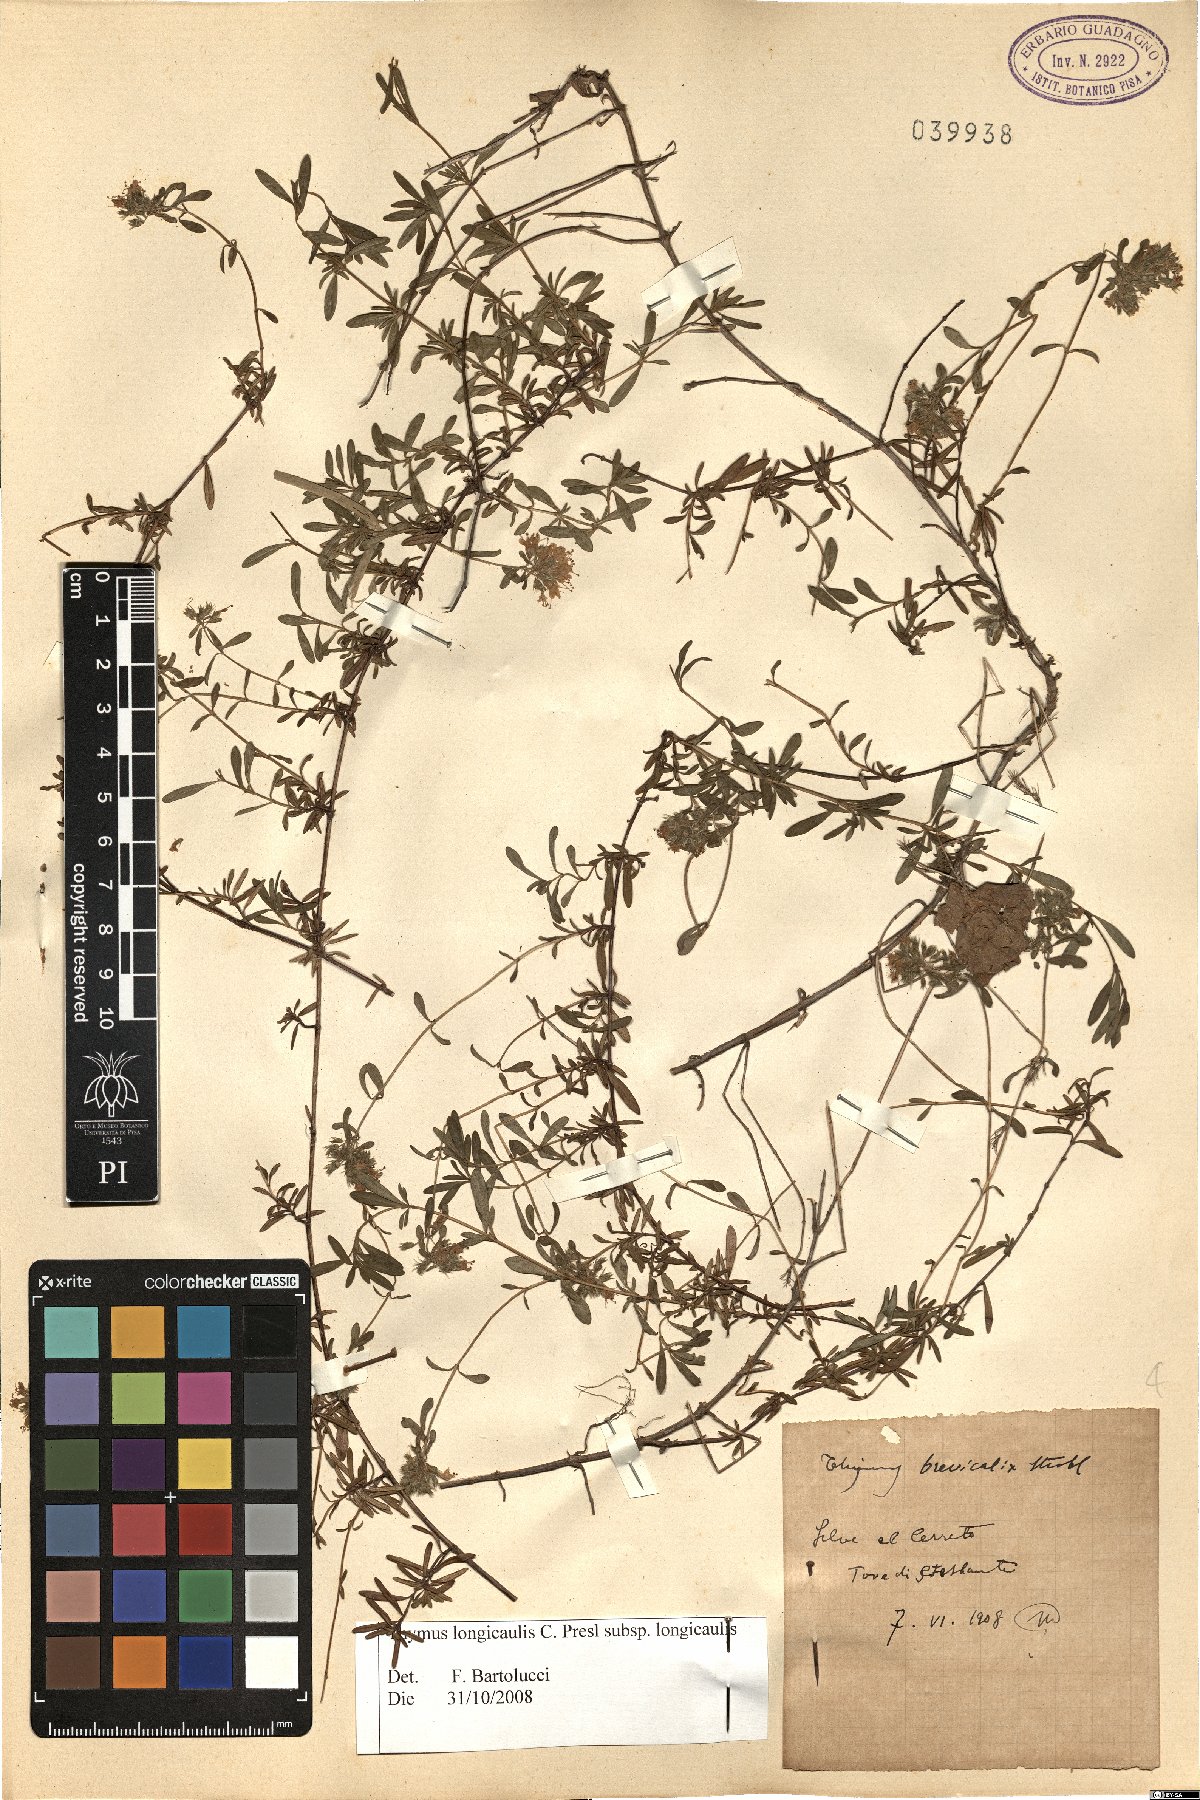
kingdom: Plantae
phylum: Tracheophyta
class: Magnoliopsida
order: Lamiales
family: Lamiaceae
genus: Thymus
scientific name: Thymus longicaulis
